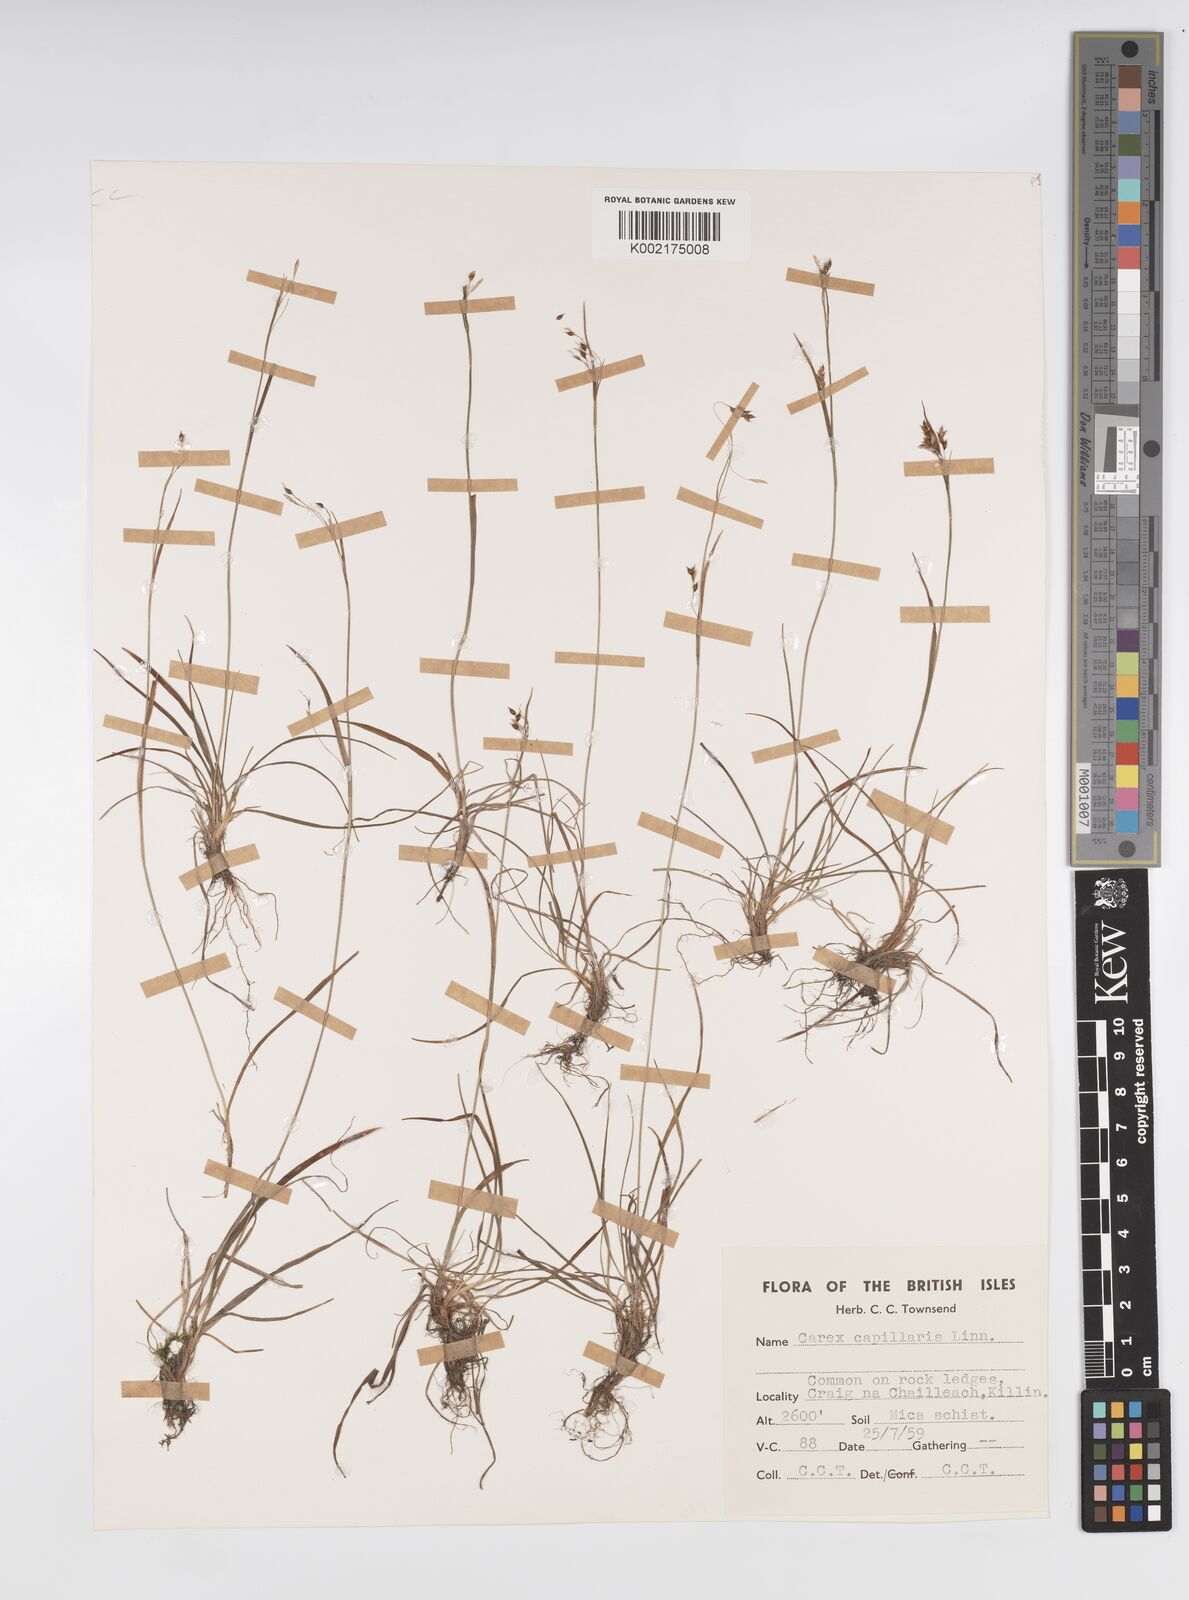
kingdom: Plantae
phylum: Tracheophyta
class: Liliopsida
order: Poales
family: Cyperaceae
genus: Carex
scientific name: Carex capillaris
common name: Hair sedge
